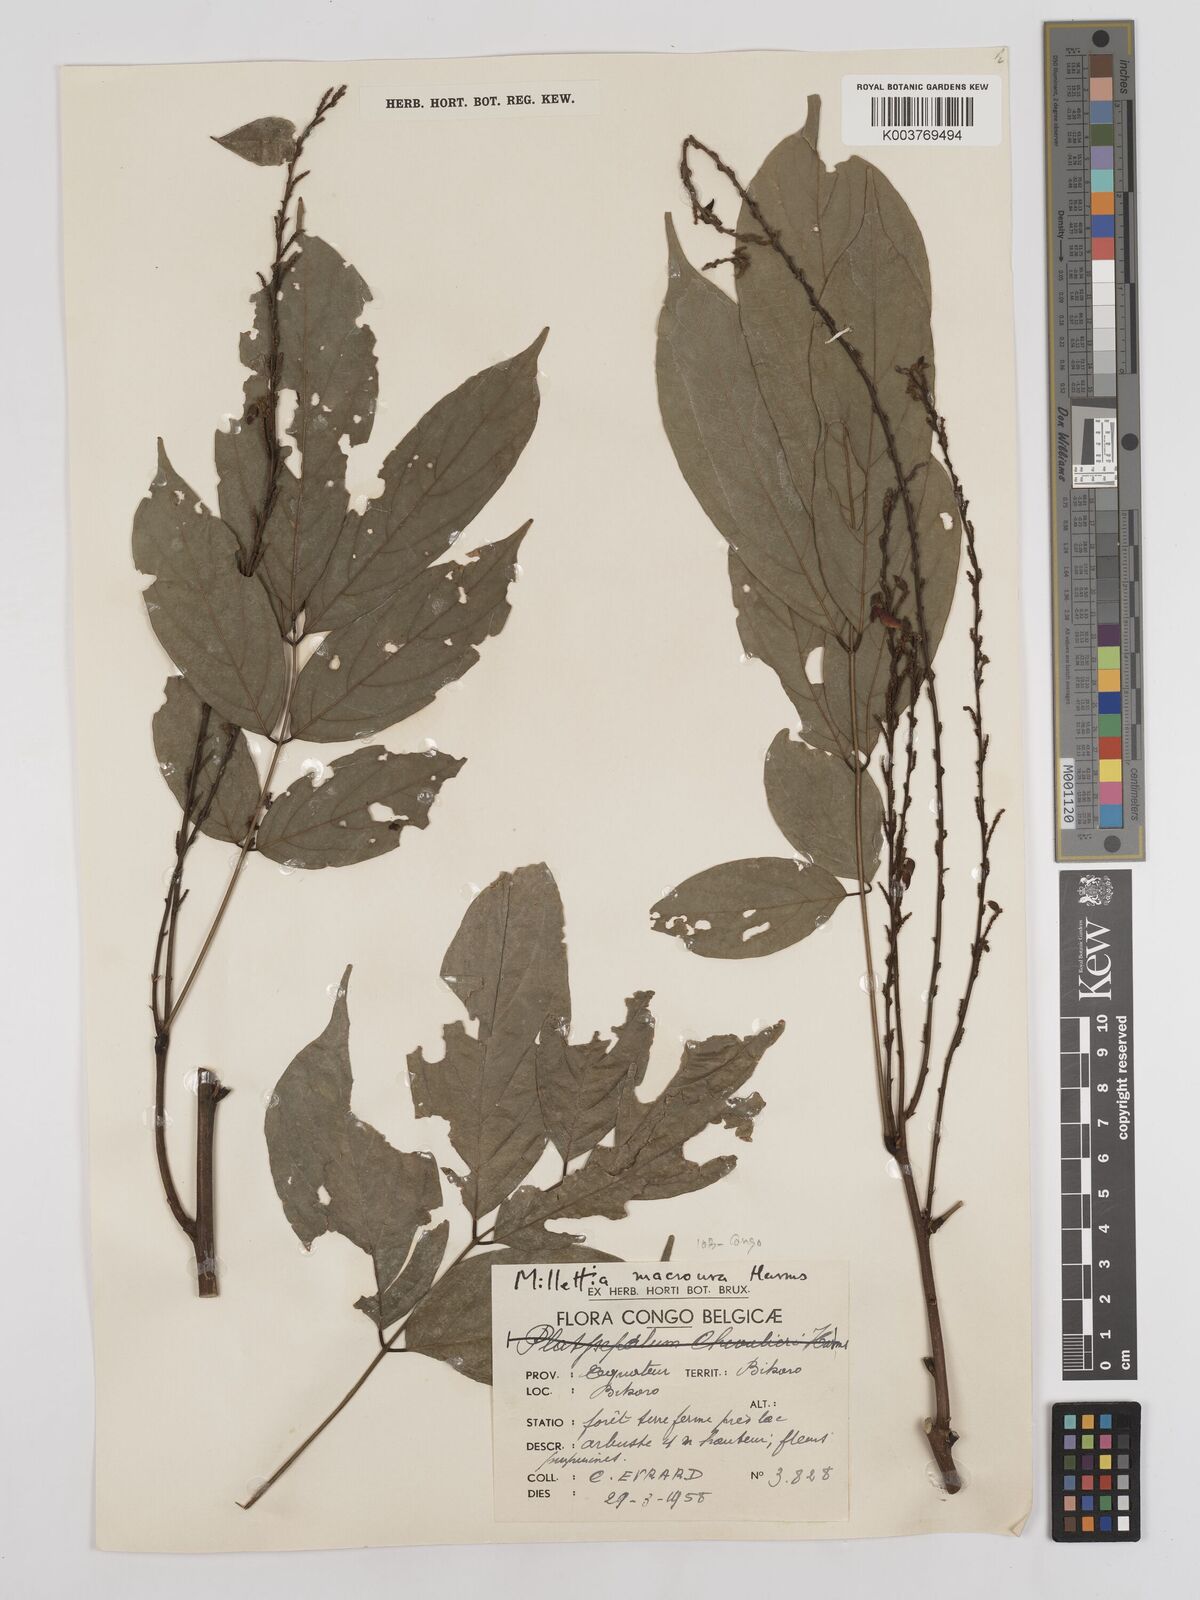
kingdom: Plantae
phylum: Tracheophyta
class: Magnoliopsida
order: Fabales
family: Fabaceae
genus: Millettia
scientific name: Millettia macroura
